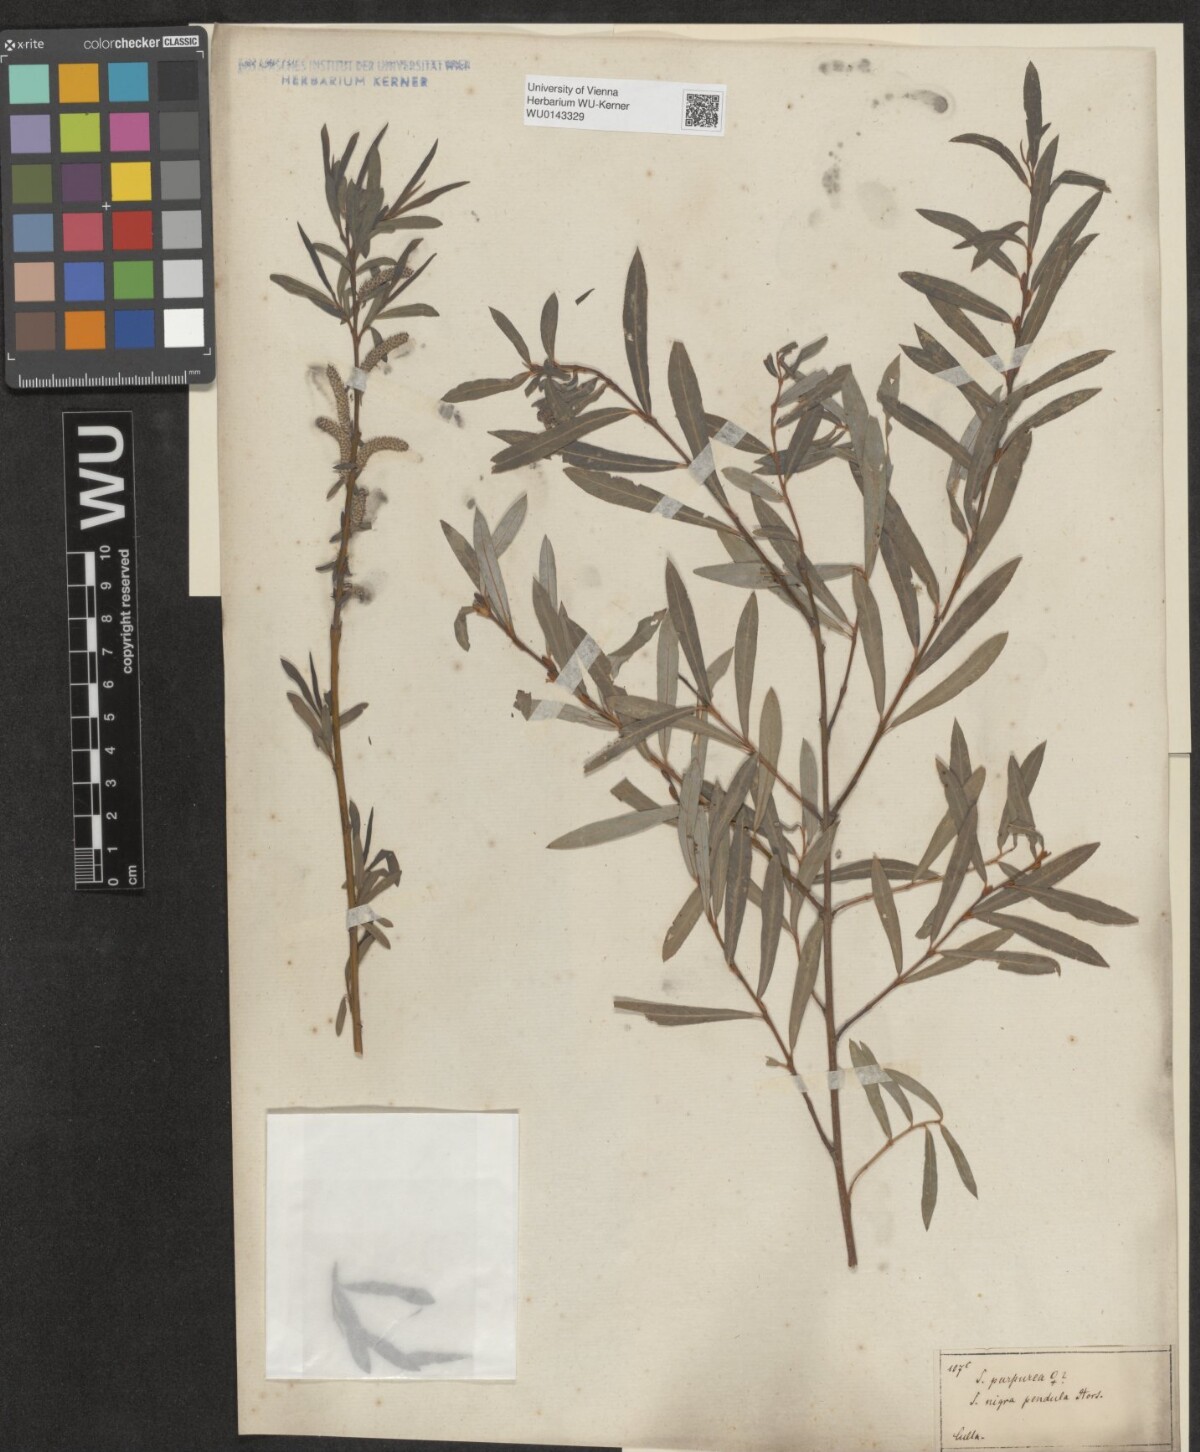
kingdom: Plantae
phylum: Tracheophyta
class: Magnoliopsida
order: Malpighiales
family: Salicaceae
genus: Salix
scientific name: Salix purpurea
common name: Purple willow
